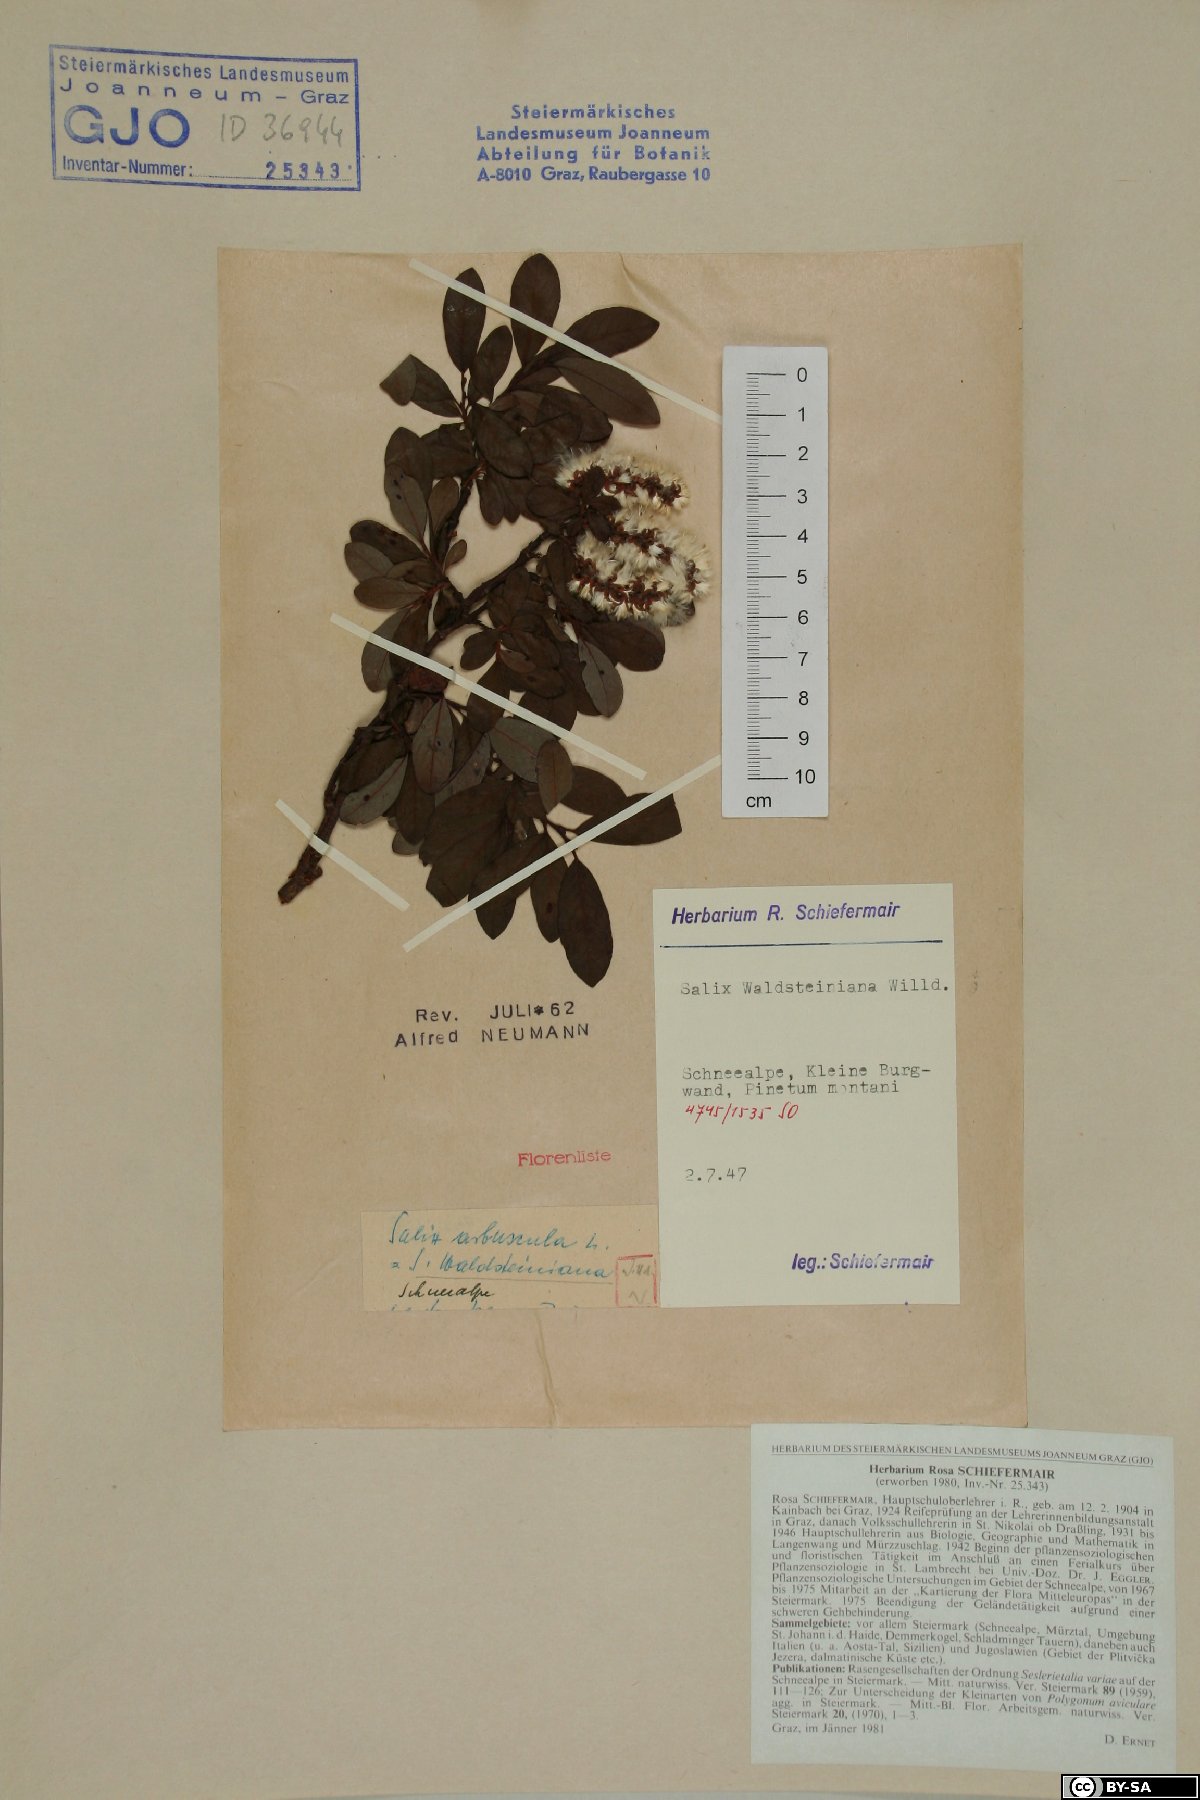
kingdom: Plantae
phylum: Tracheophyta
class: Magnoliopsida
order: Malpighiales
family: Salicaceae
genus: Salix
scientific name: Salix waldsteiniana
